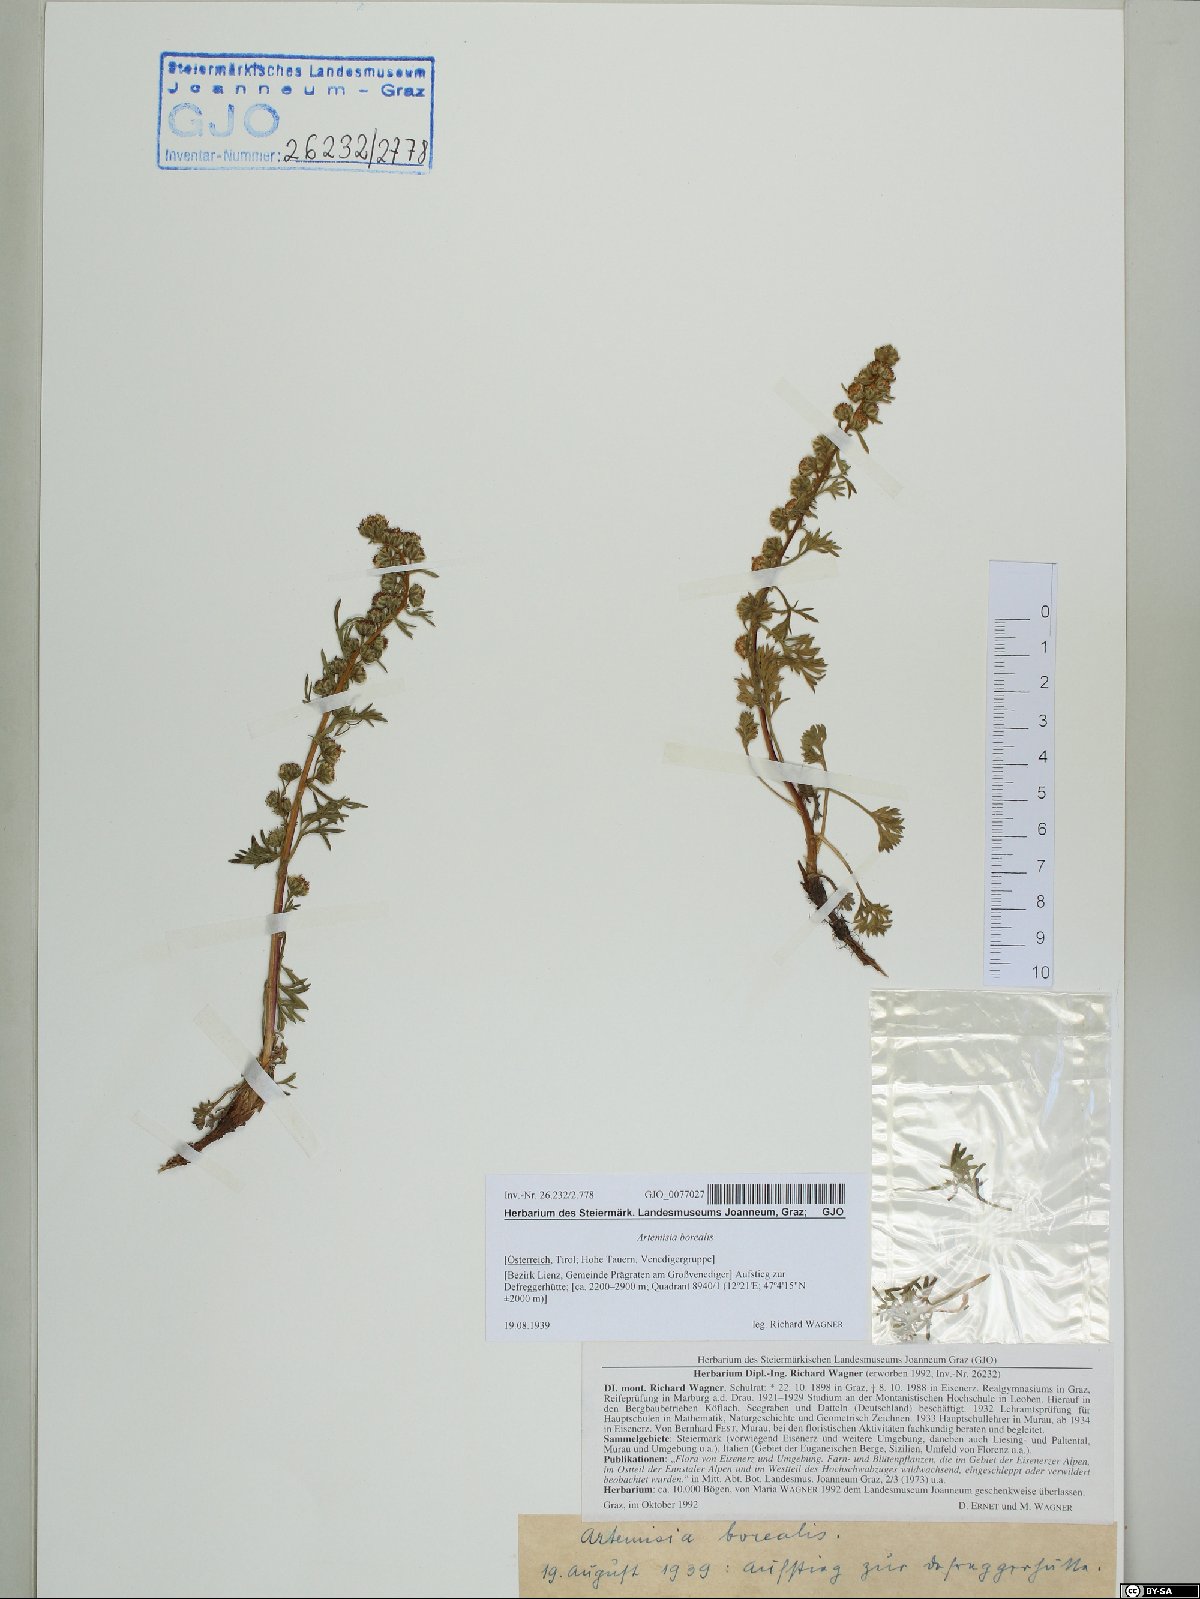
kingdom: Plantae
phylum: Tracheophyta
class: Magnoliopsida
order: Asterales
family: Asteraceae
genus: Artemisia
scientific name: Artemisia borealis
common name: Boreal sage
